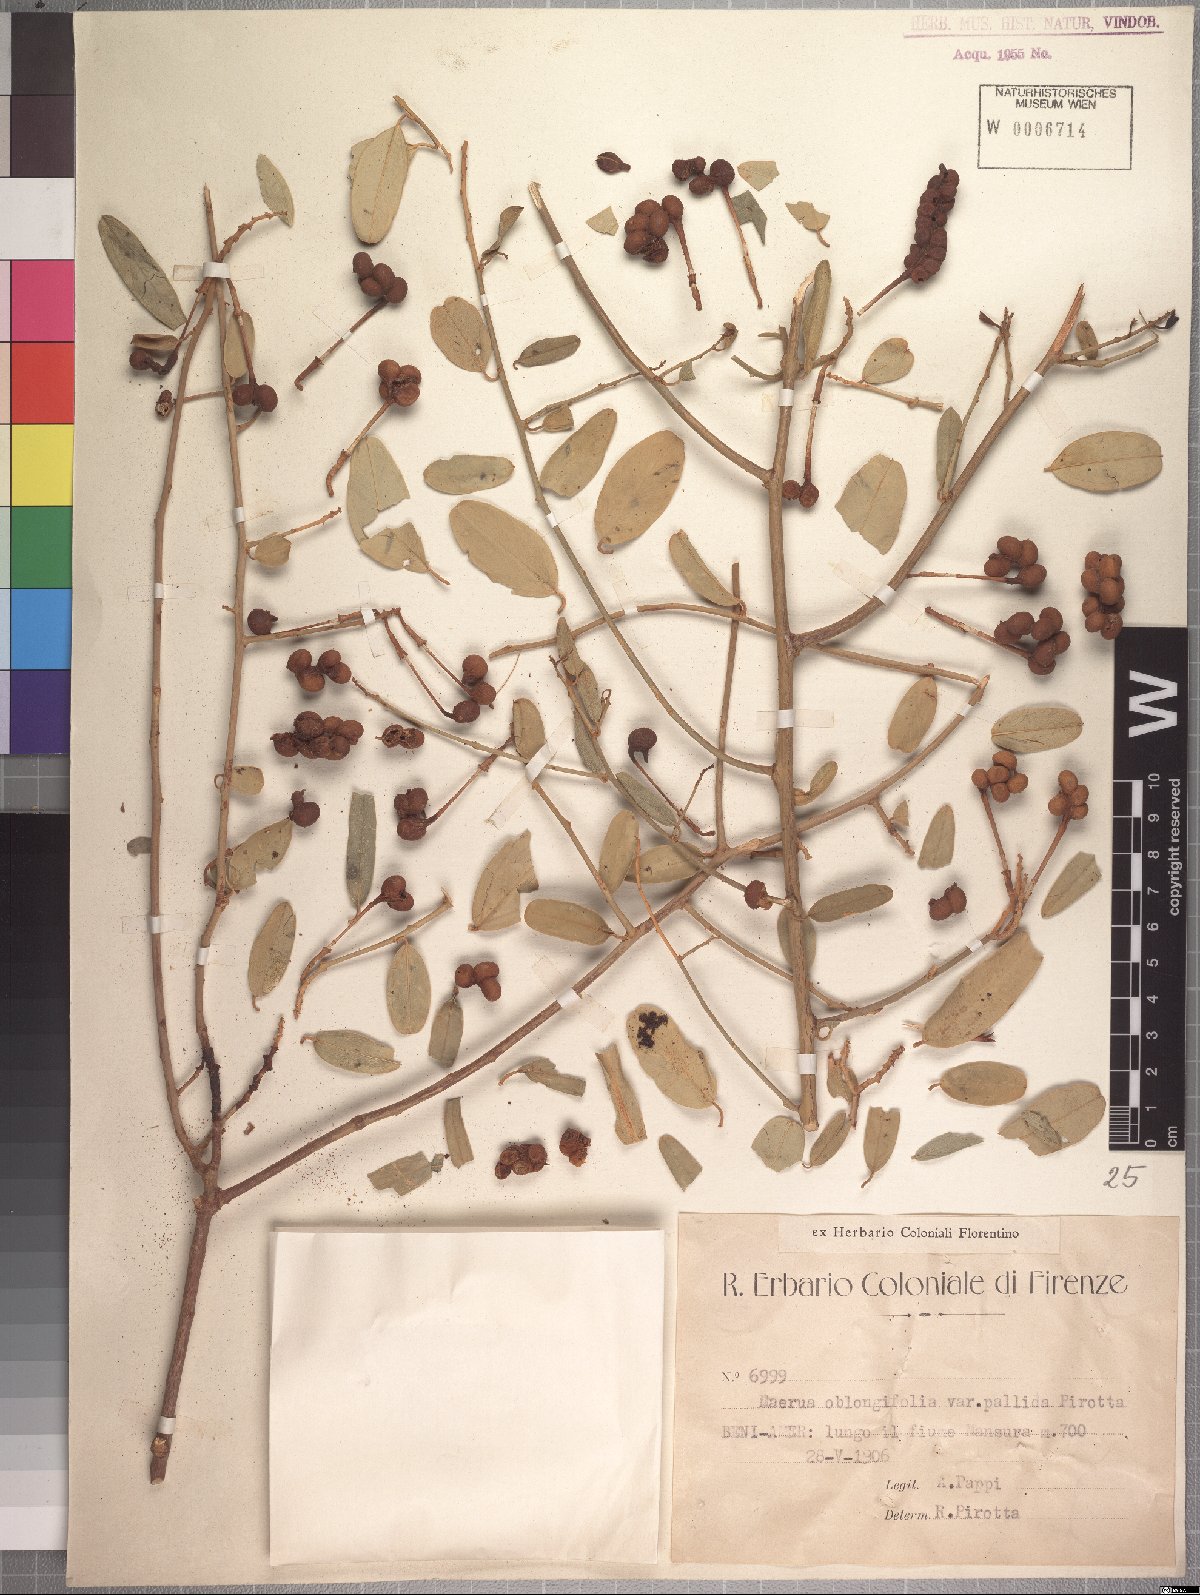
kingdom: Plantae
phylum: Tracheophyta
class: Magnoliopsida
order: Brassicales
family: Capparaceae
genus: Maerua
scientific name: Maerua oblongifolia
